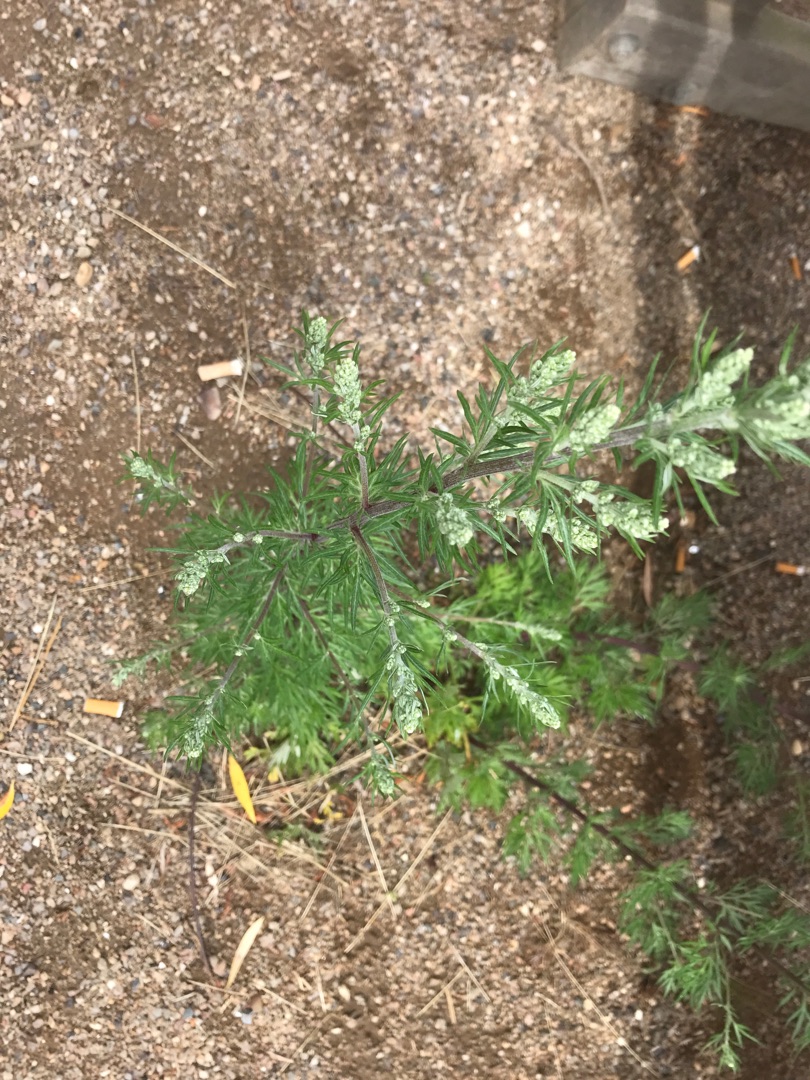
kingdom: Plantae
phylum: Tracheophyta
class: Magnoliopsida
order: Asterales
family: Asteraceae
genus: Artemisia
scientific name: Artemisia vulgaris
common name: Grå-bynke
